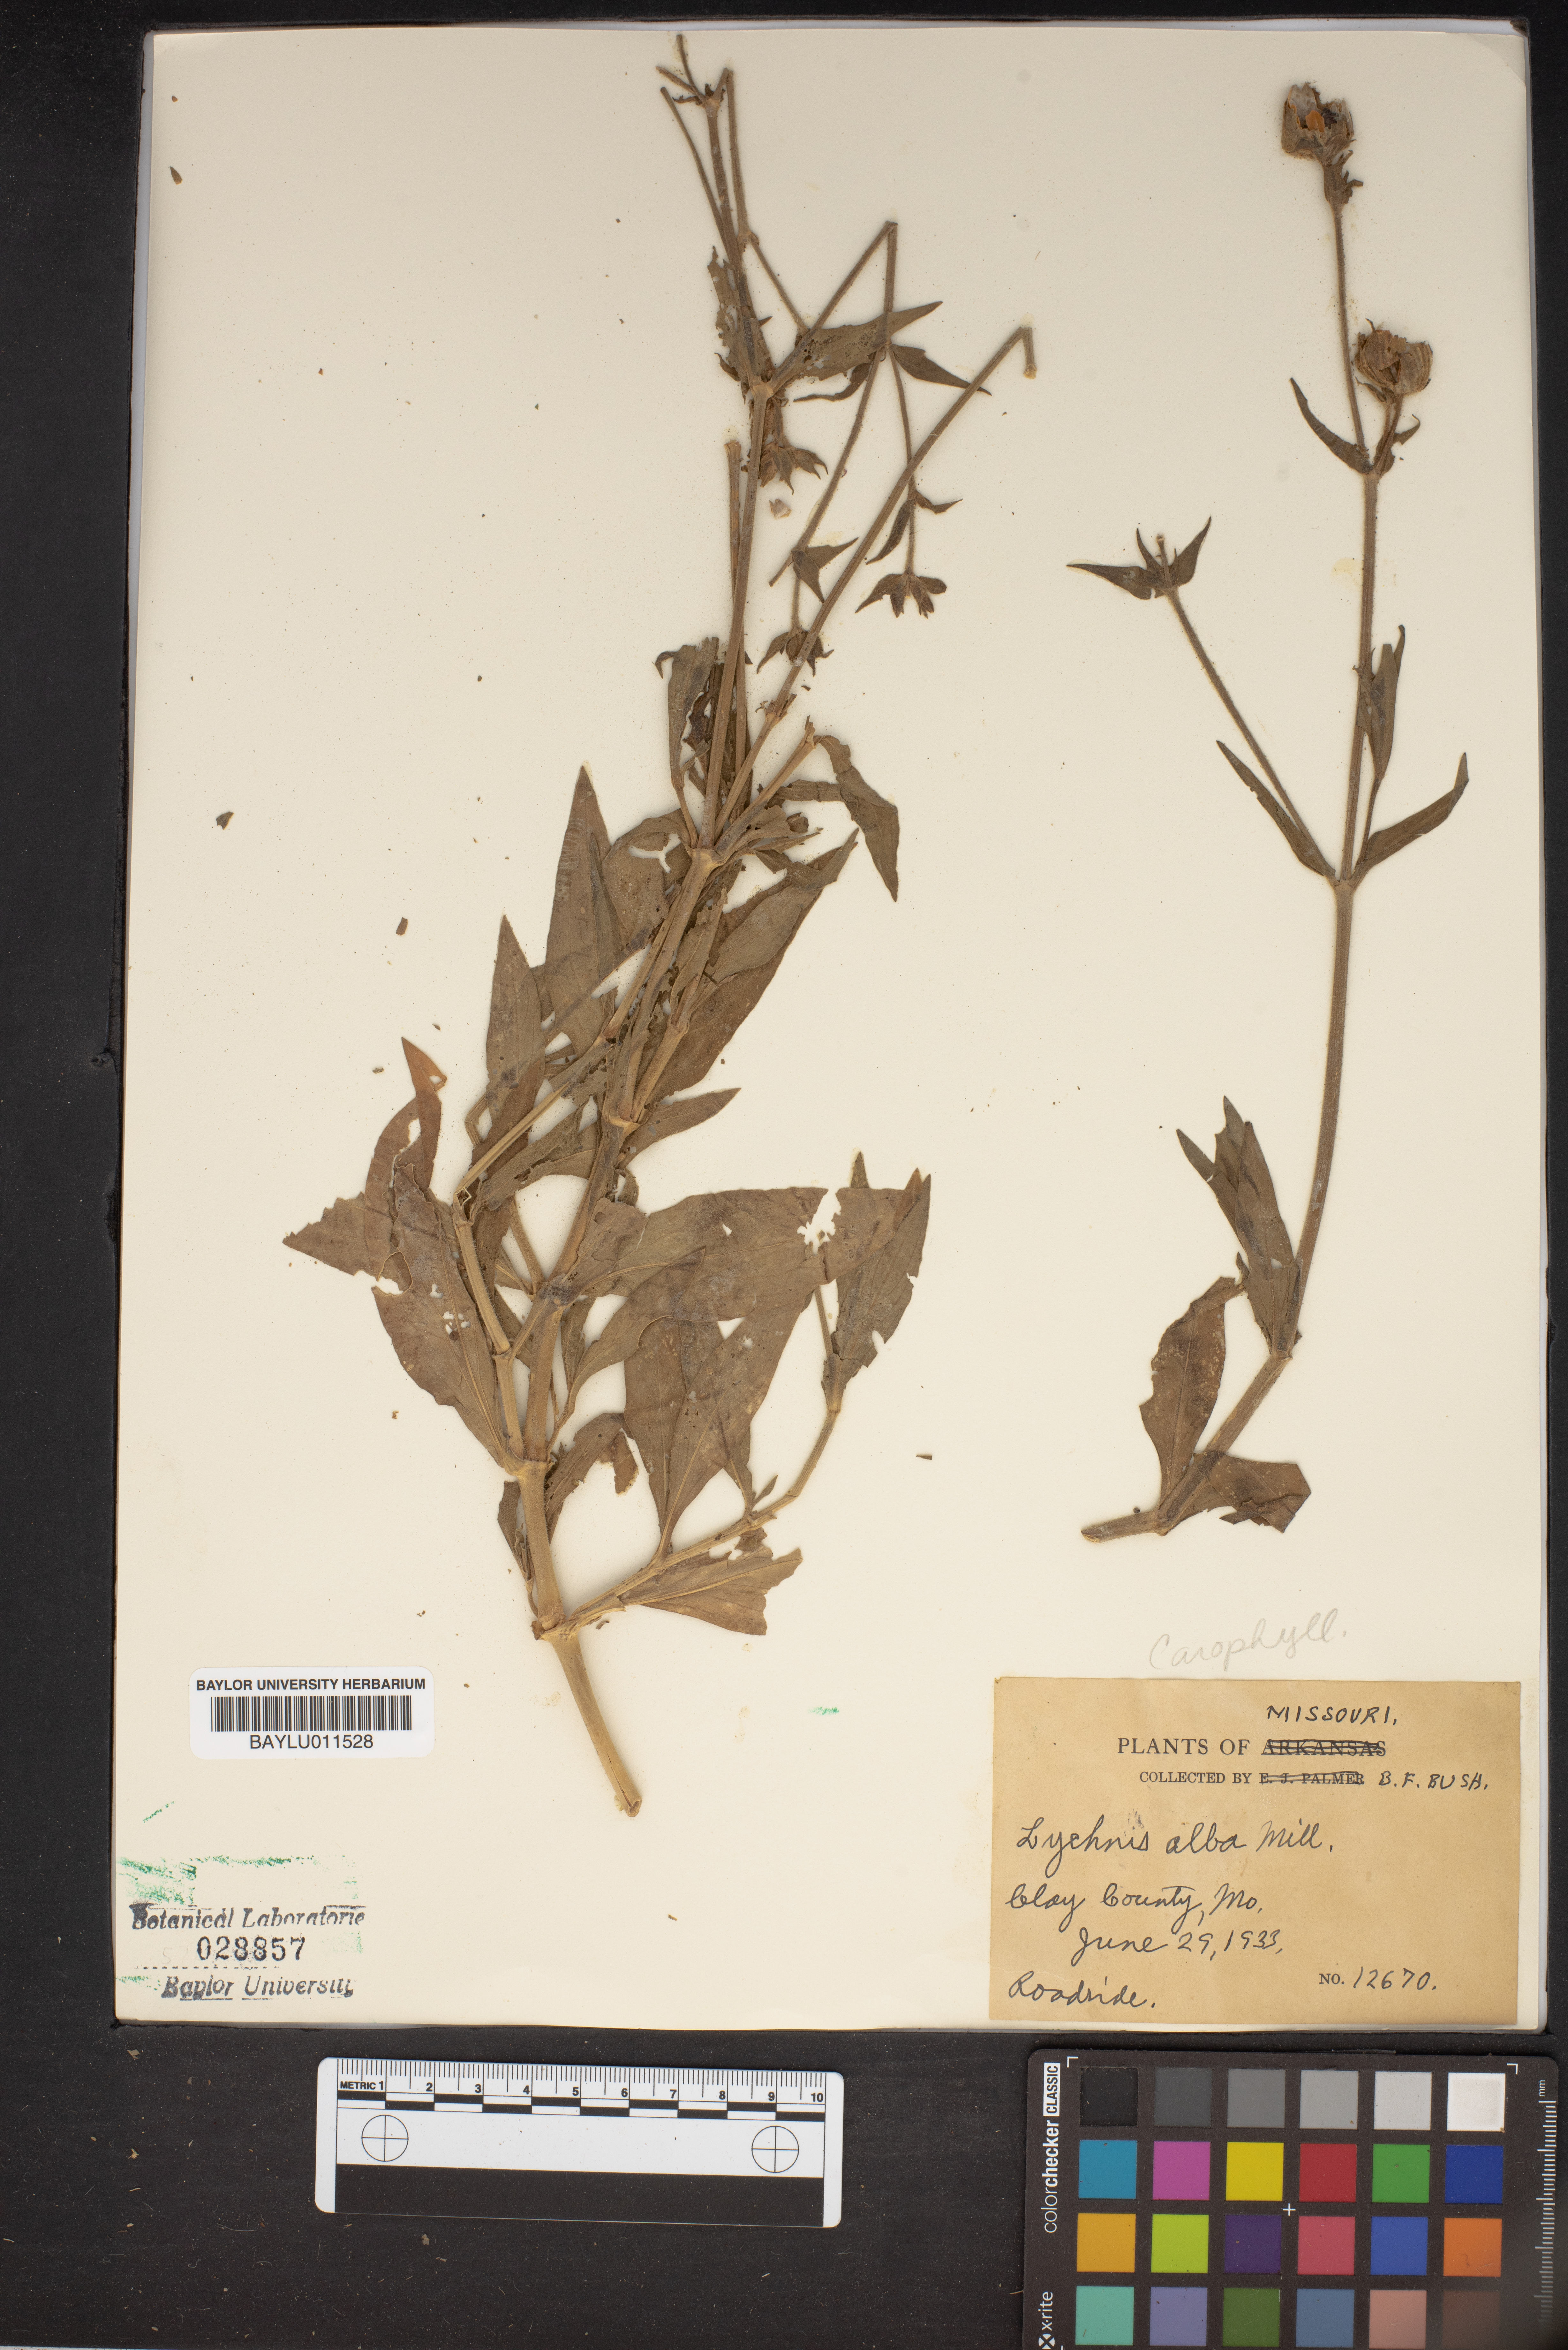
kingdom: Plantae
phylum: Tracheophyta
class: Magnoliopsida
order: Caryophyllales
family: Caryophyllaceae
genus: Silene
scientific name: Silene latifolia
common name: White campion
